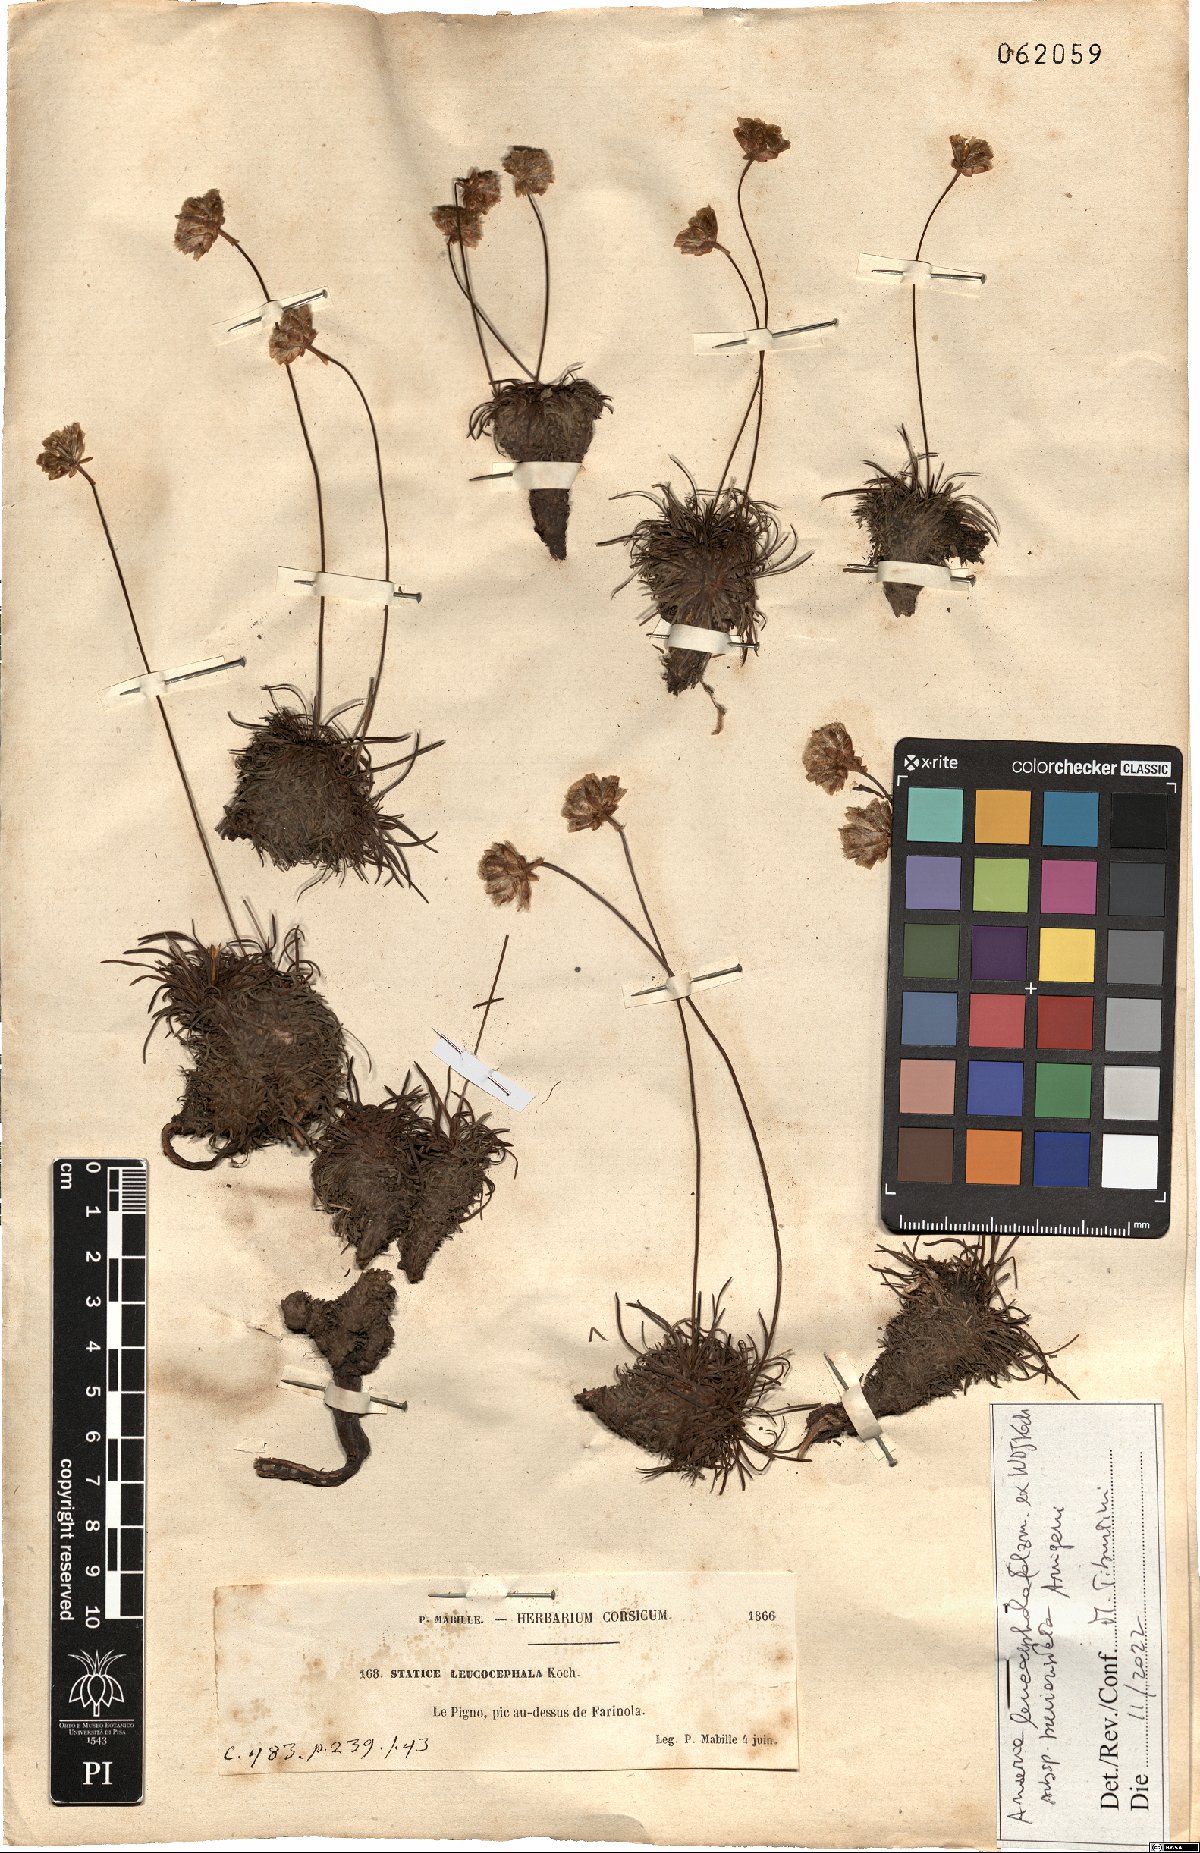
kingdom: Plantae
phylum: Tracheophyta
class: Magnoliopsida
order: Caryophyllales
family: Plumbaginaceae
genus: Armeria
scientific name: Armeria leucocephala
